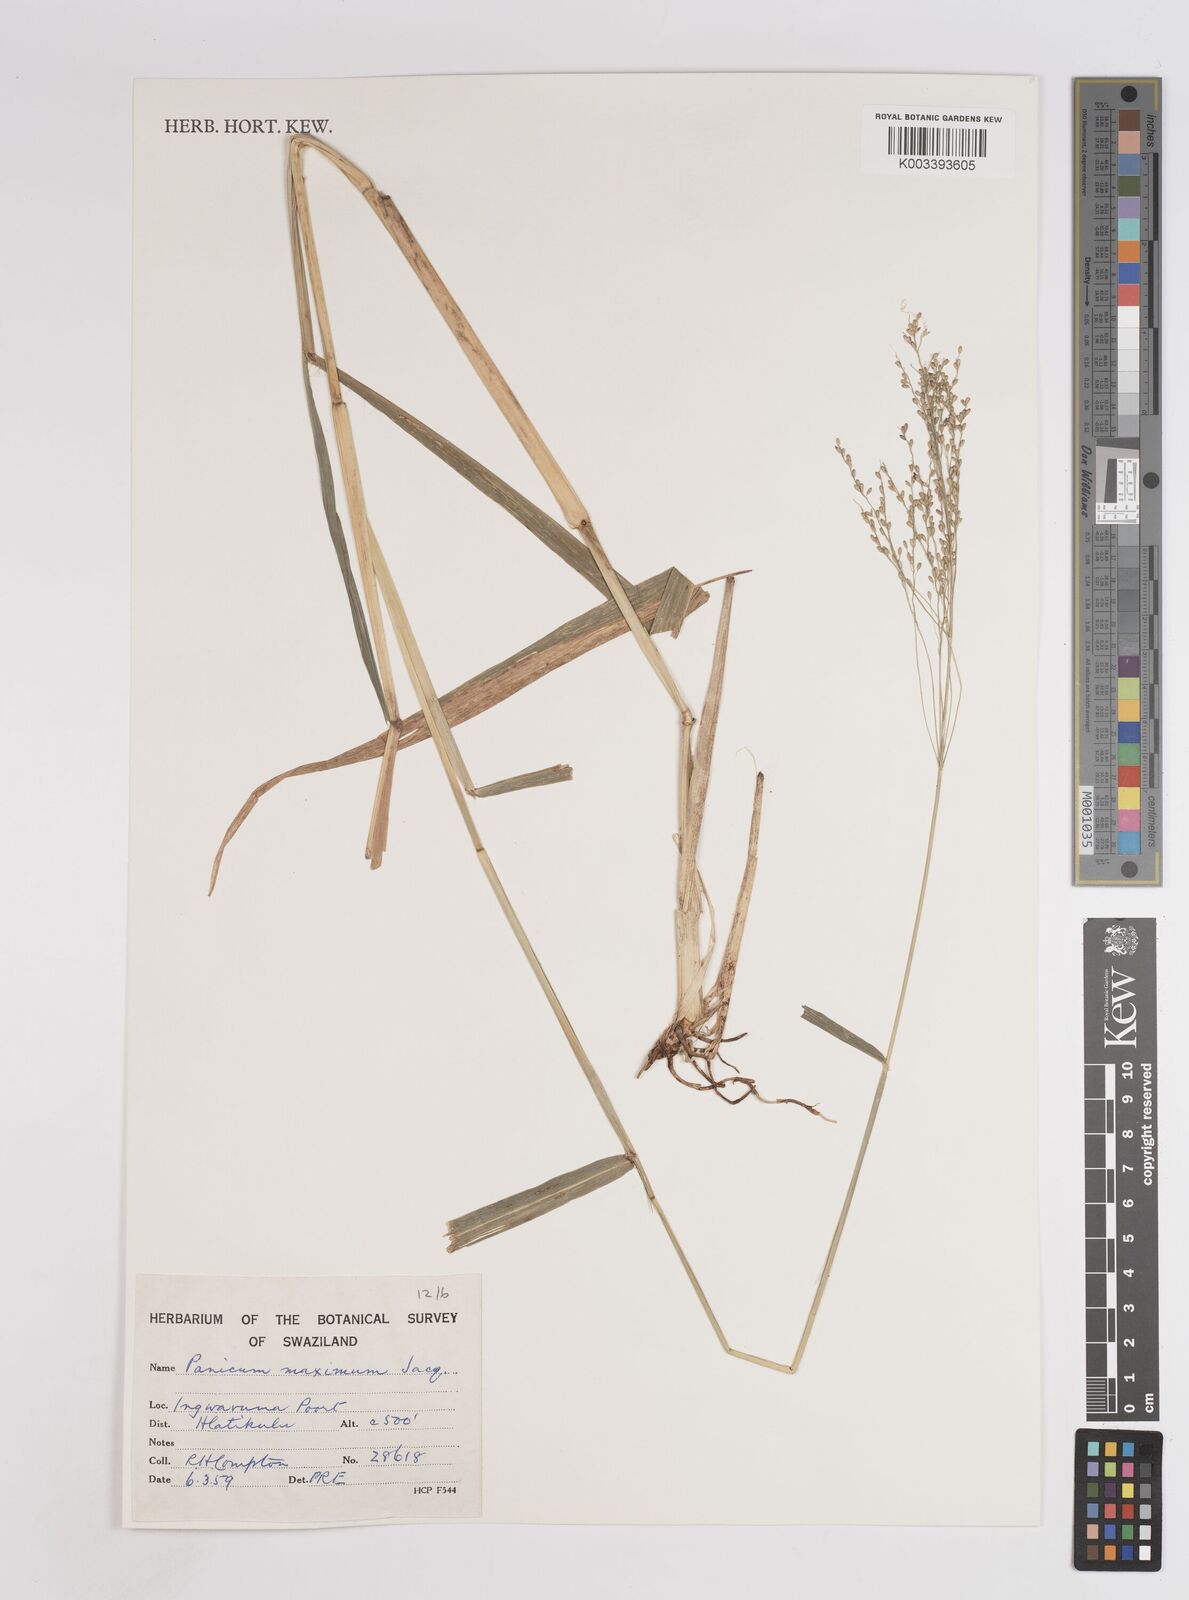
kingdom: Plantae
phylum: Tracheophyta
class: Liliopsida
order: Poales
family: Poaceae
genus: Megathyrsus
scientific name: Megathyrsus maximus
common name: Guineagrass
